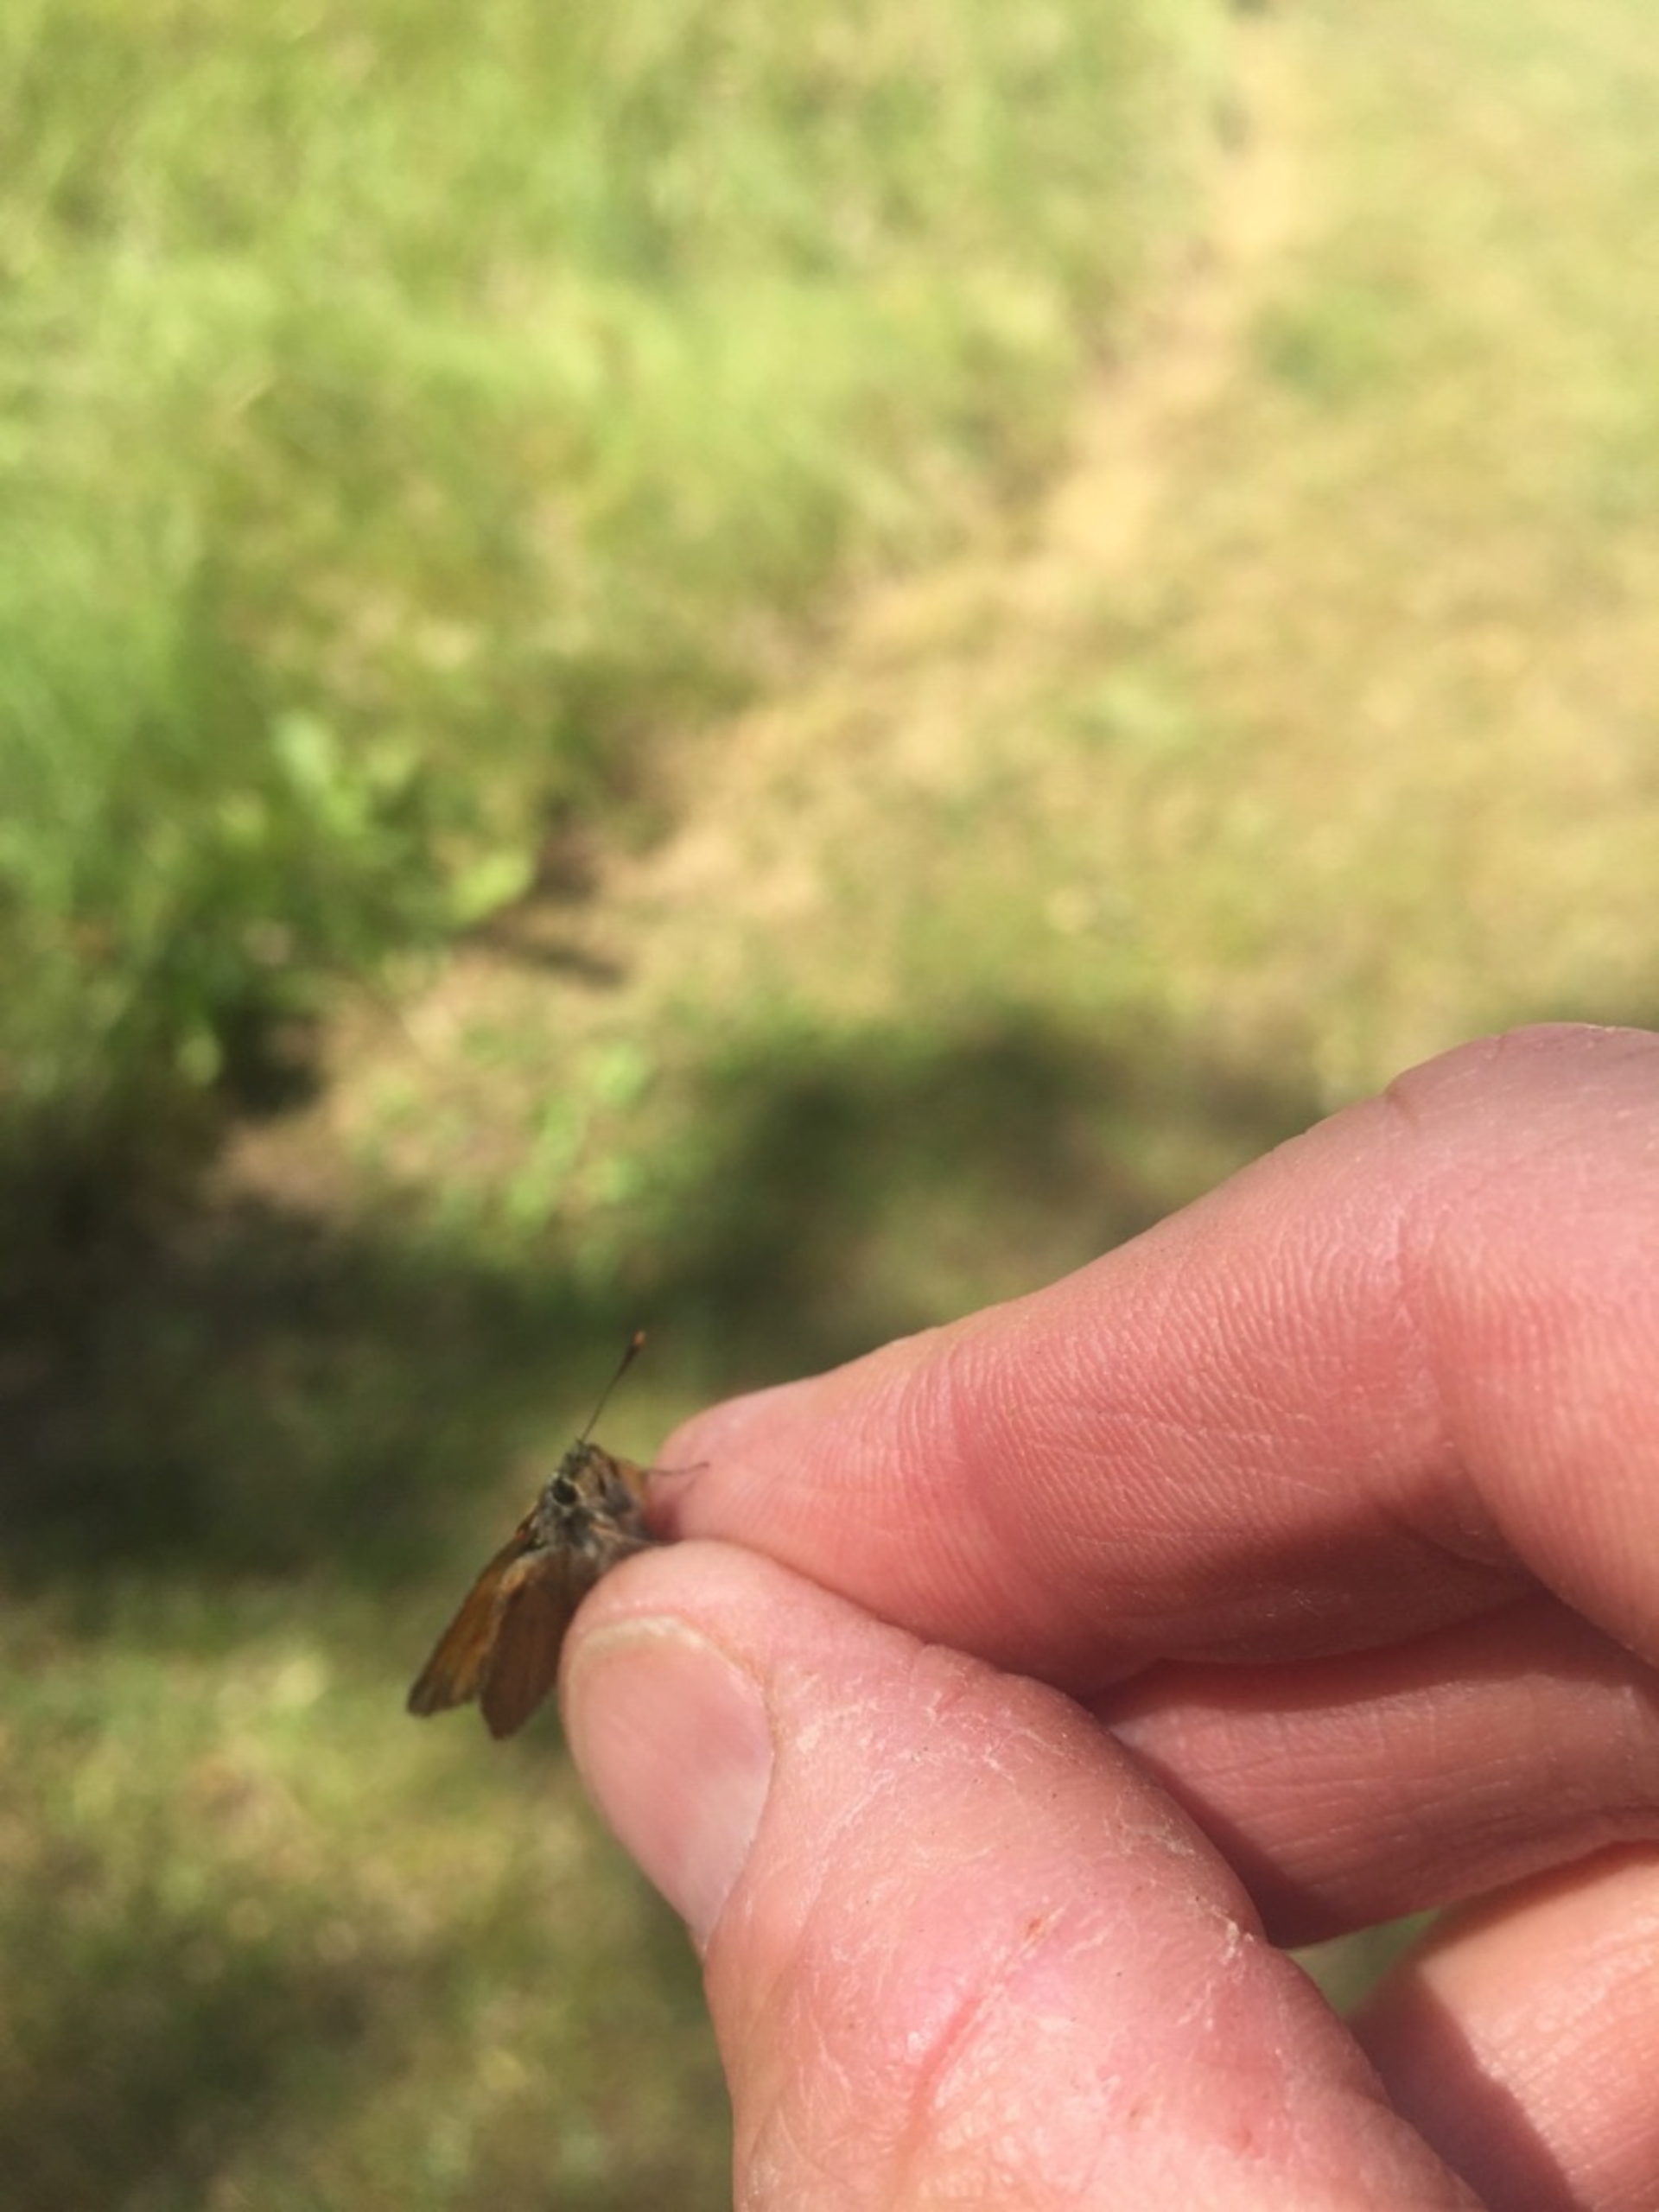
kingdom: Animalia
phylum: Arthropoda
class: Insecta
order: Lepidoptera
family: Hesperiidae
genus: Thymelicus
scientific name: Thymelicus sylvestris
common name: Skråstregbredpande
